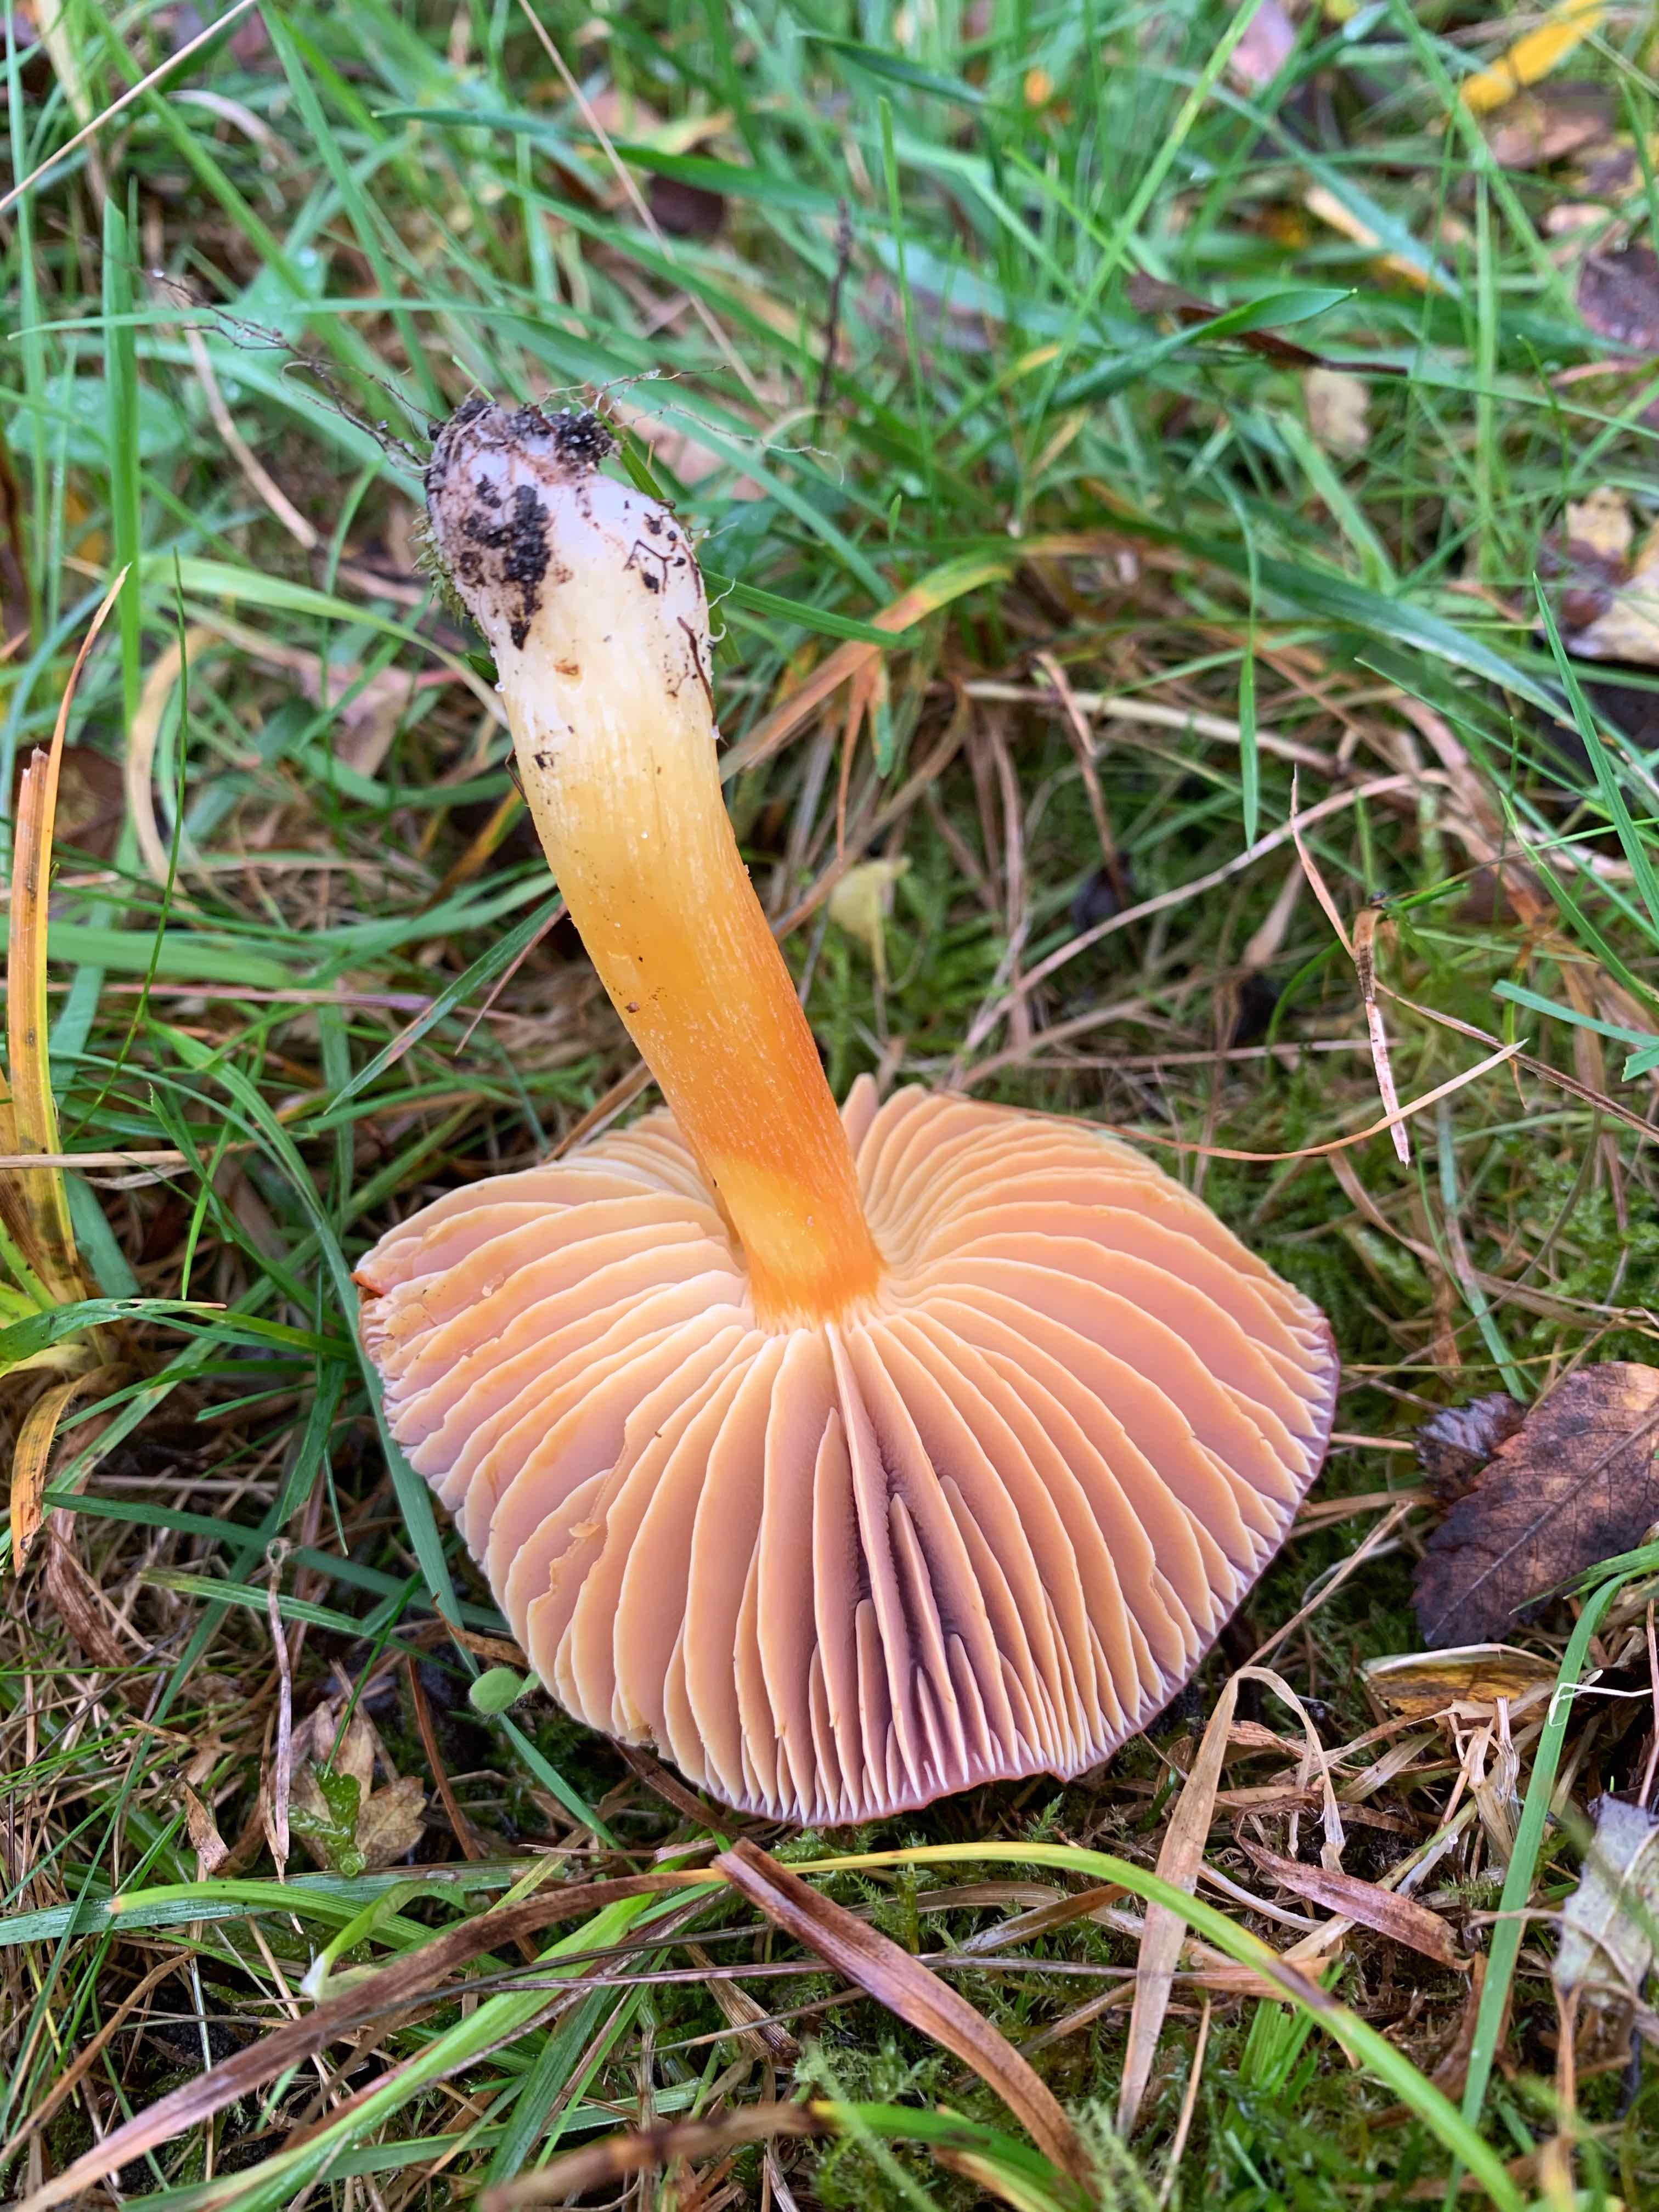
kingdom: Fungi
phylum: Basidiomycota
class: Agaricomycetes
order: Agaricales
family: Hygrophoraceae
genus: Hygrocybe
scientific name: Hygrocybe punicea
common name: skarlagen-vokshat
